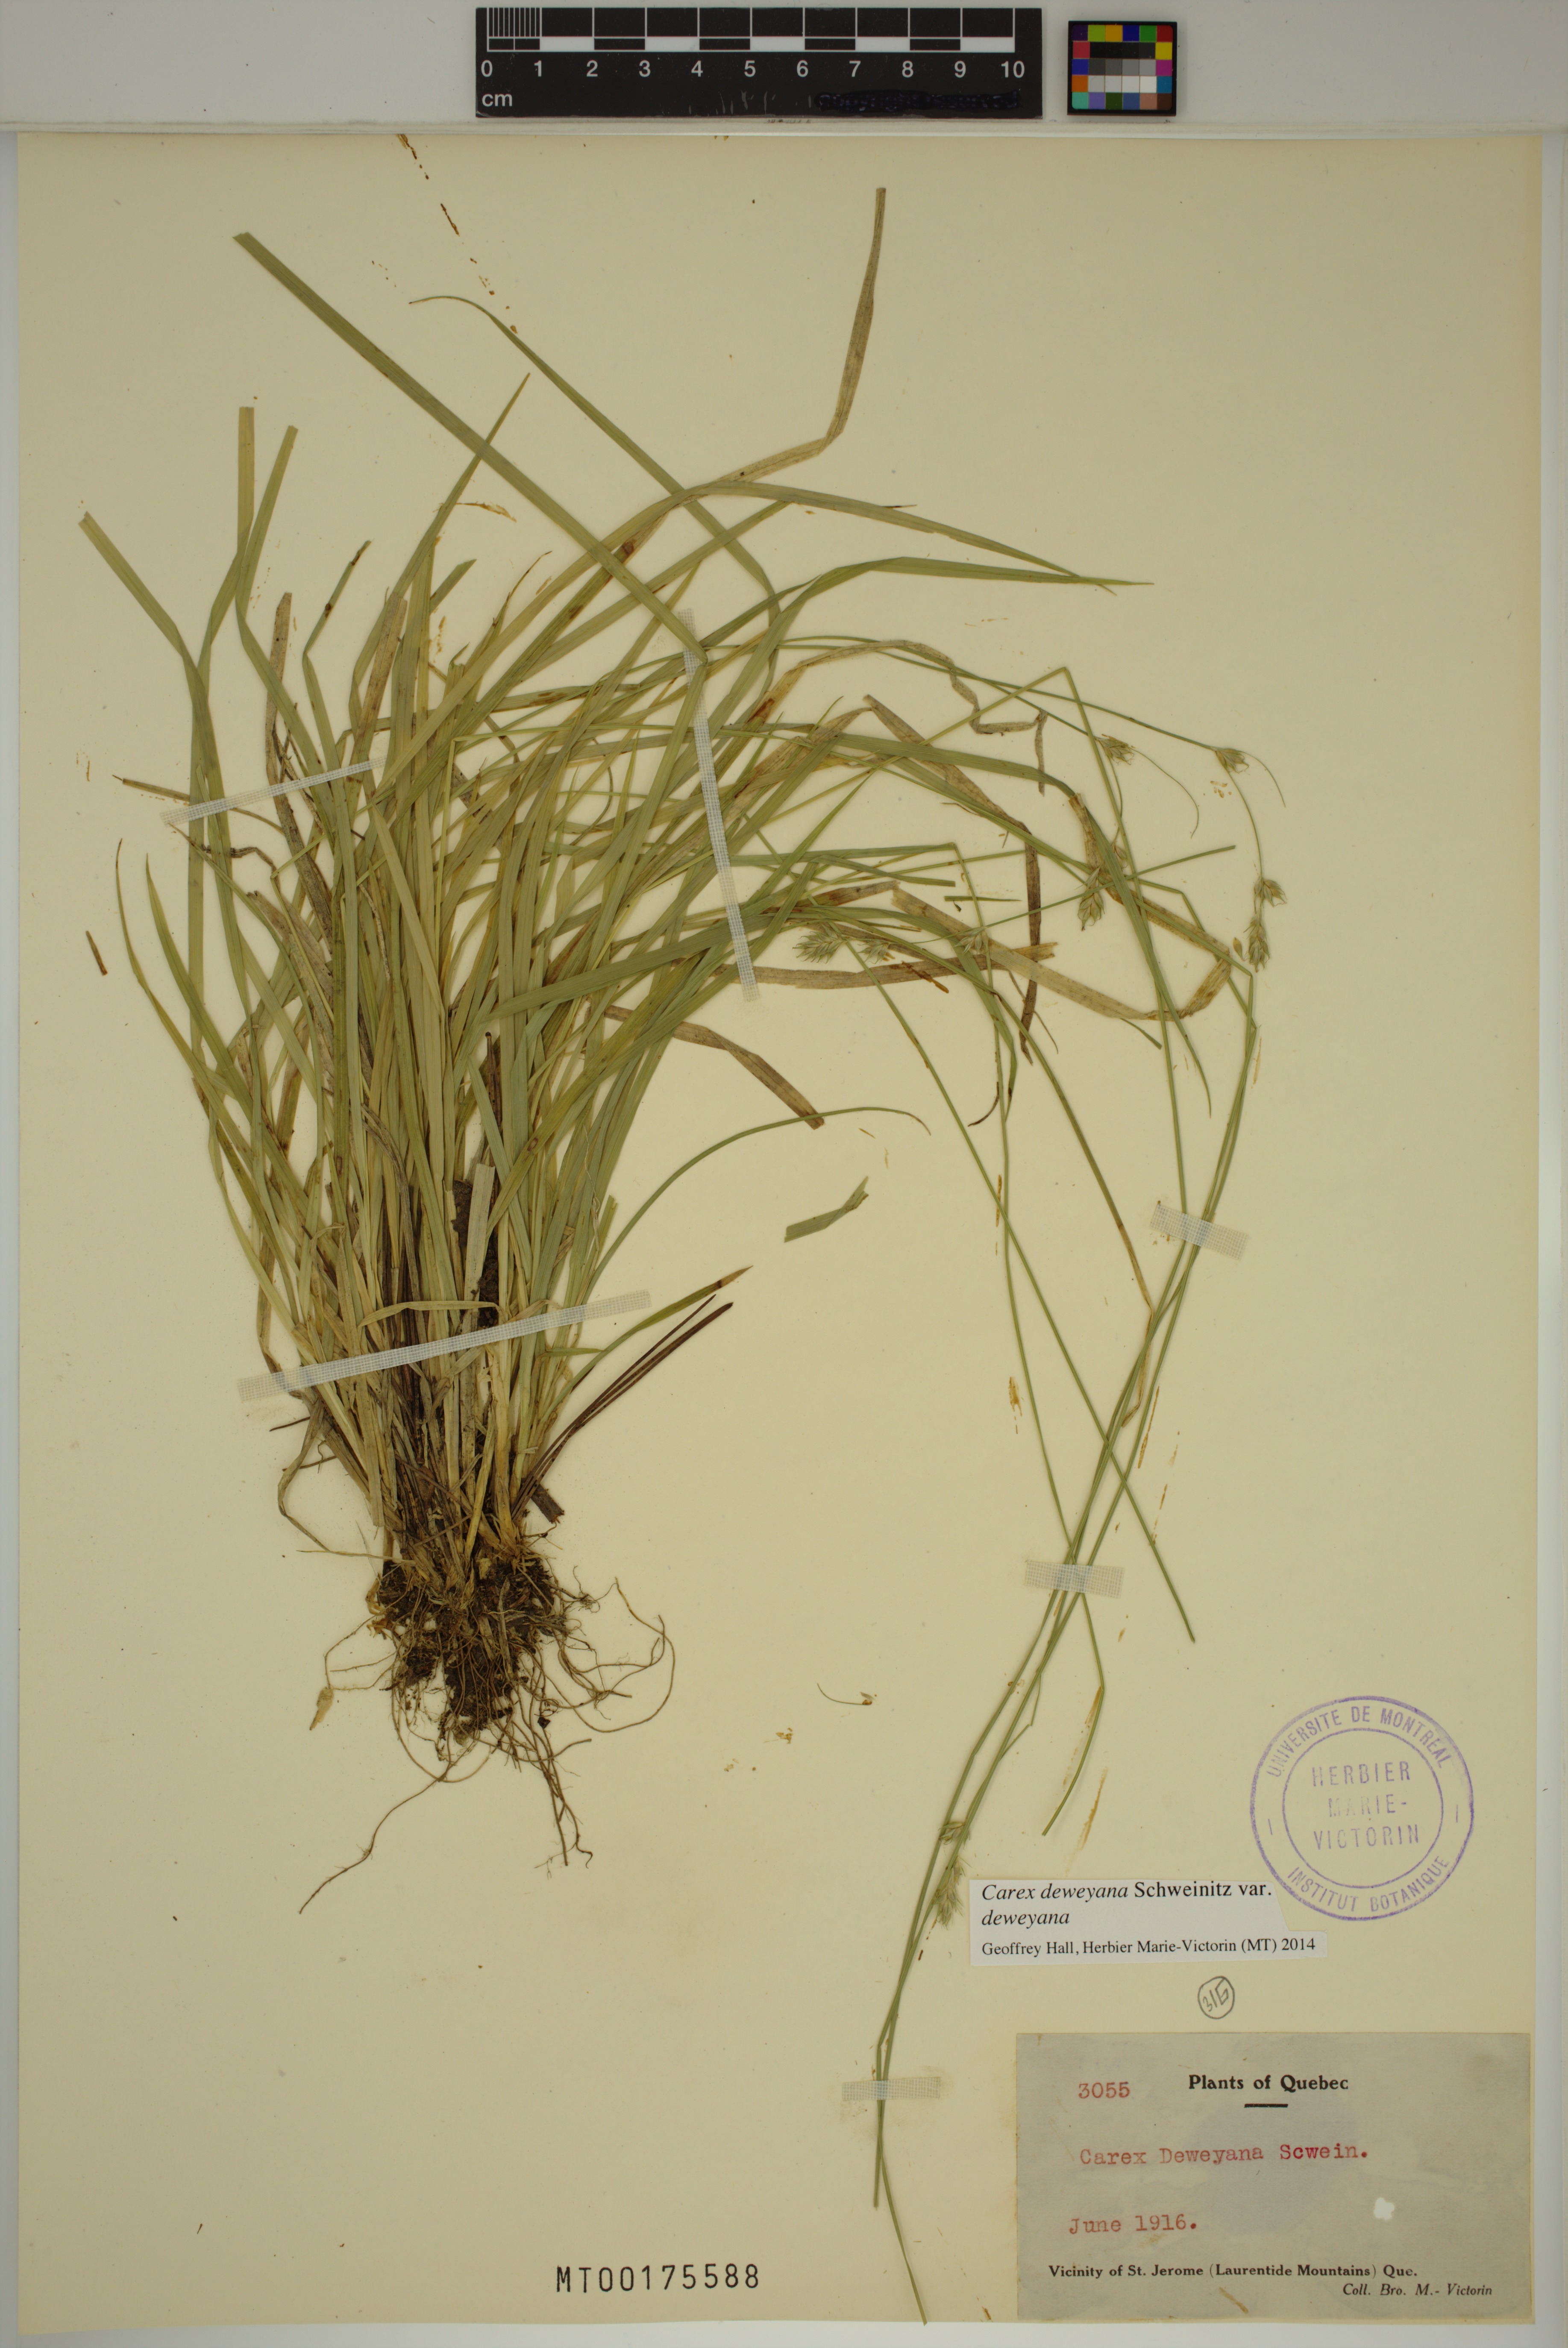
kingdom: Plantae
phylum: Tracheophyta
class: Liliopsida
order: Poales
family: Cyperaceae
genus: Carex
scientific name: Carex deweyana
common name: Dewey's sedge
